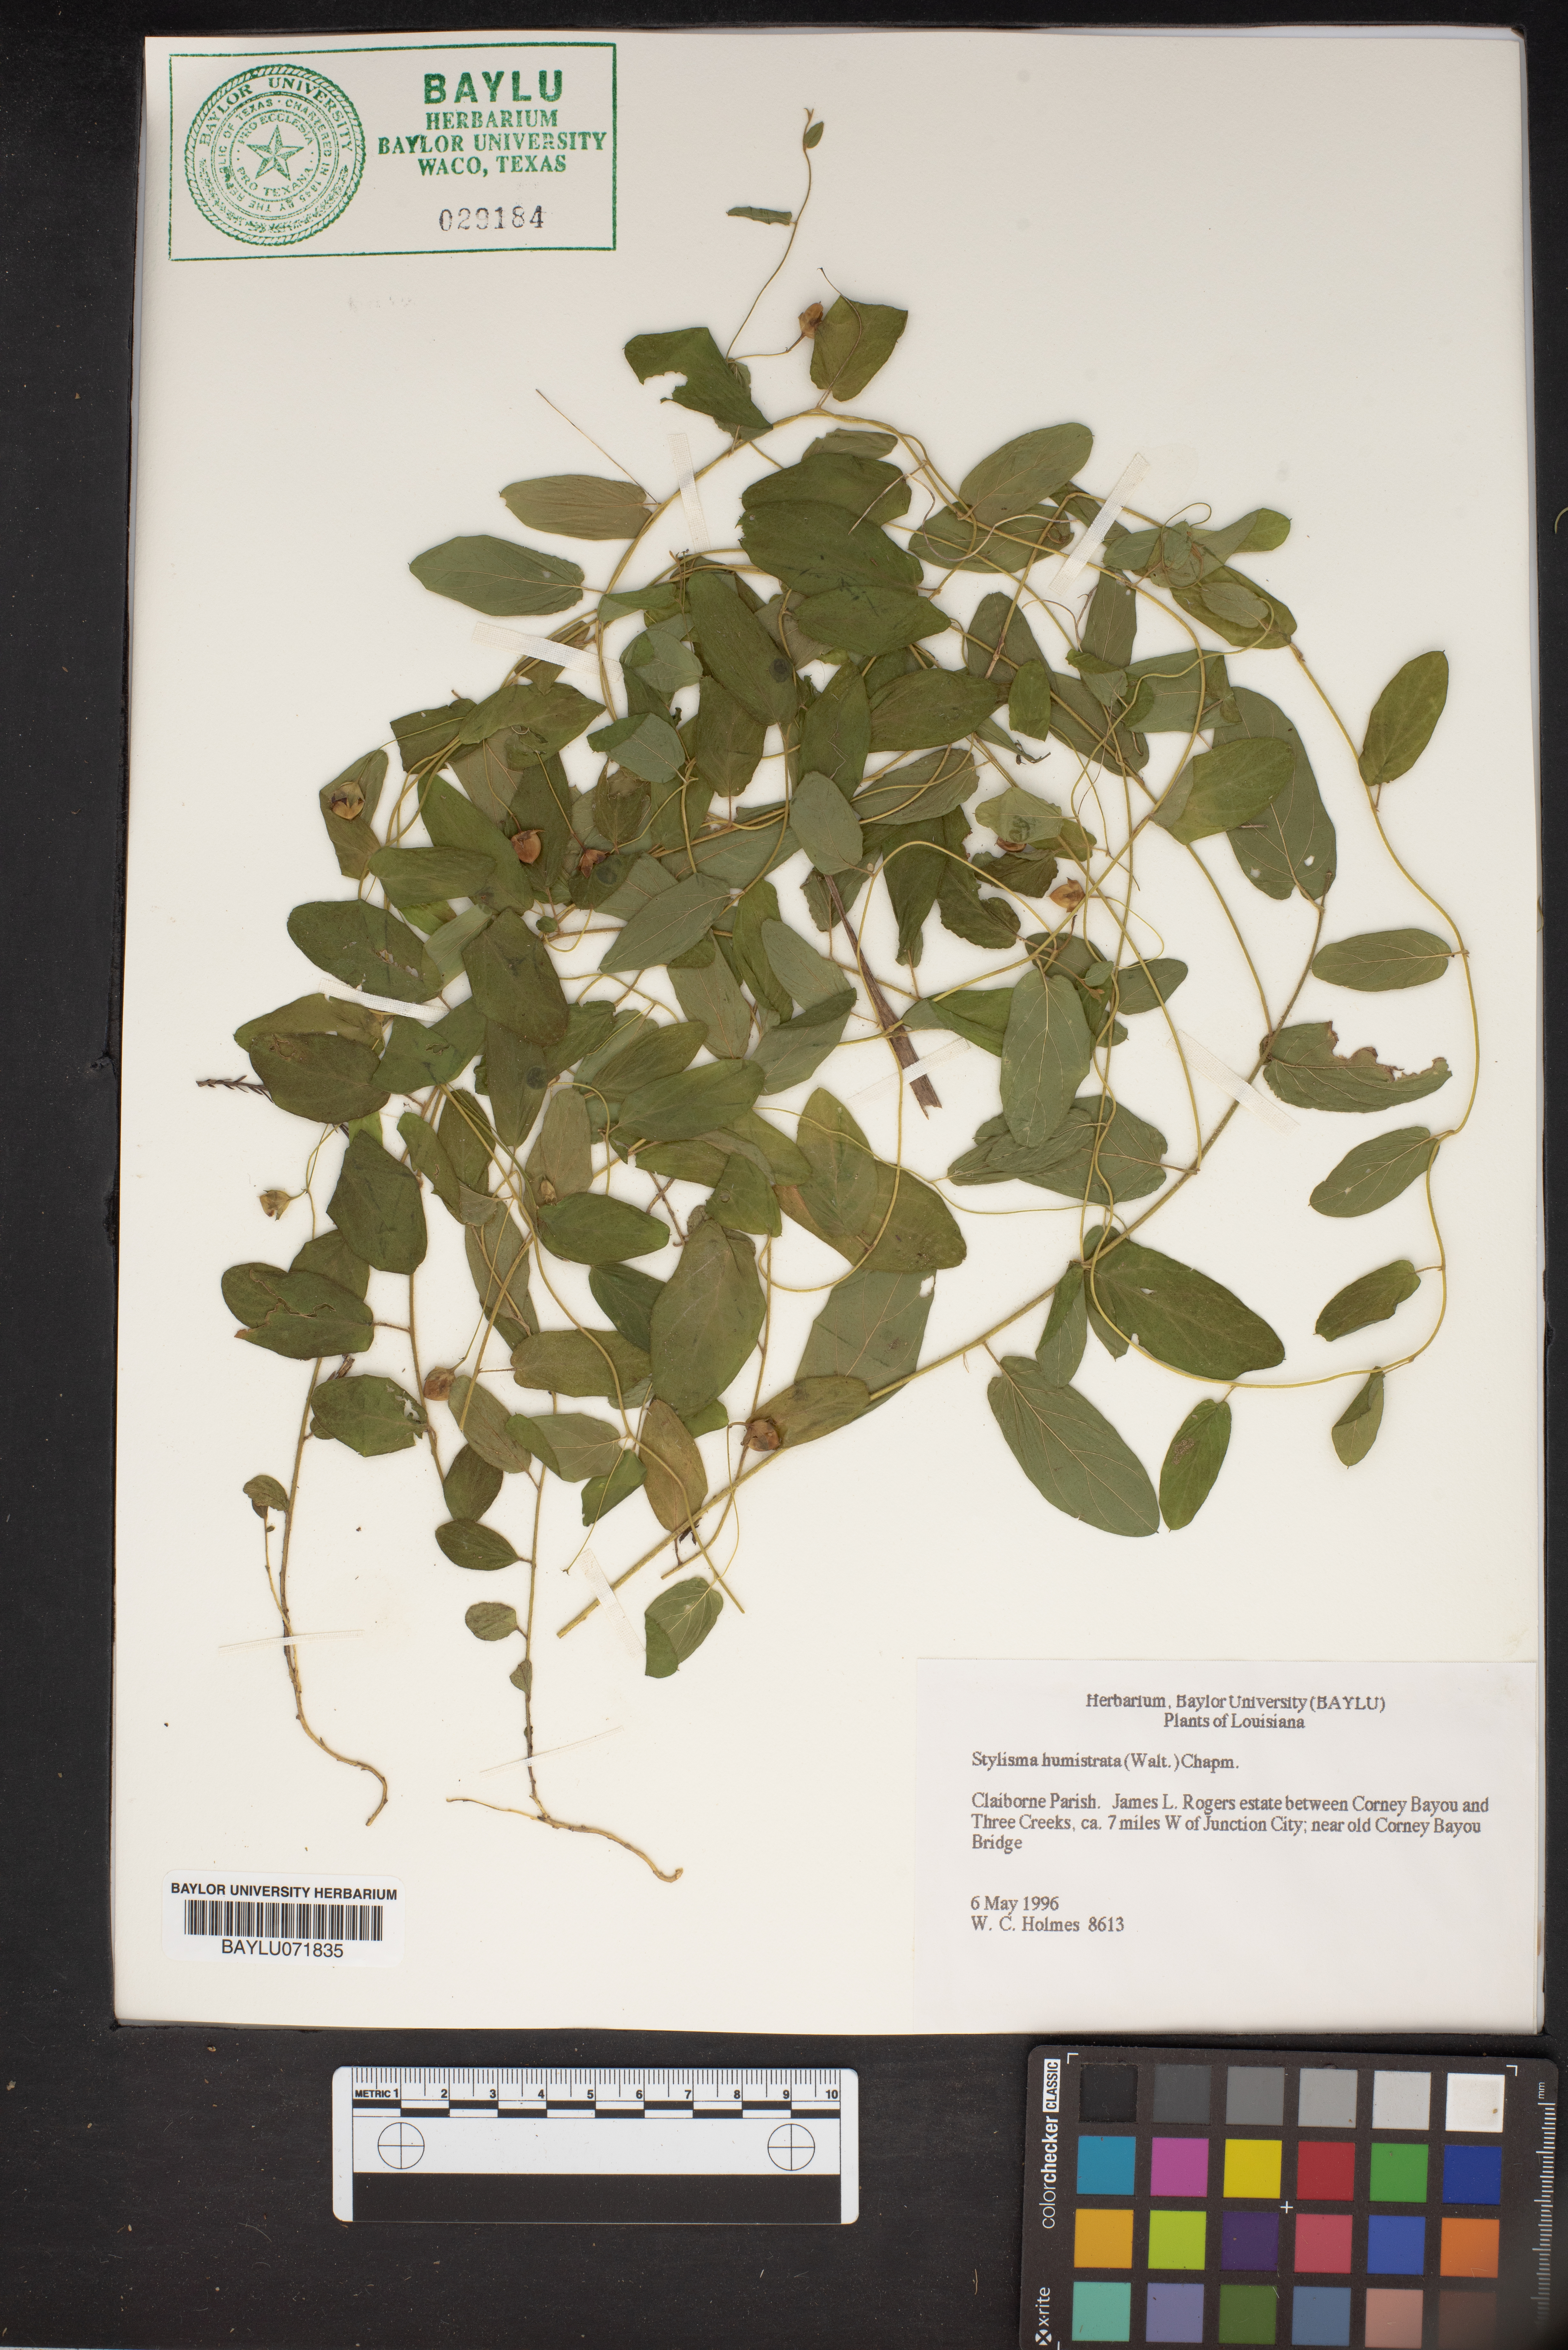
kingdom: Plantae
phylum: Tracheophyta
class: Magnoliopsida
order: Solanales
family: Convolvulaceae
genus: Stylisma
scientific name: Stylisma humistrata
